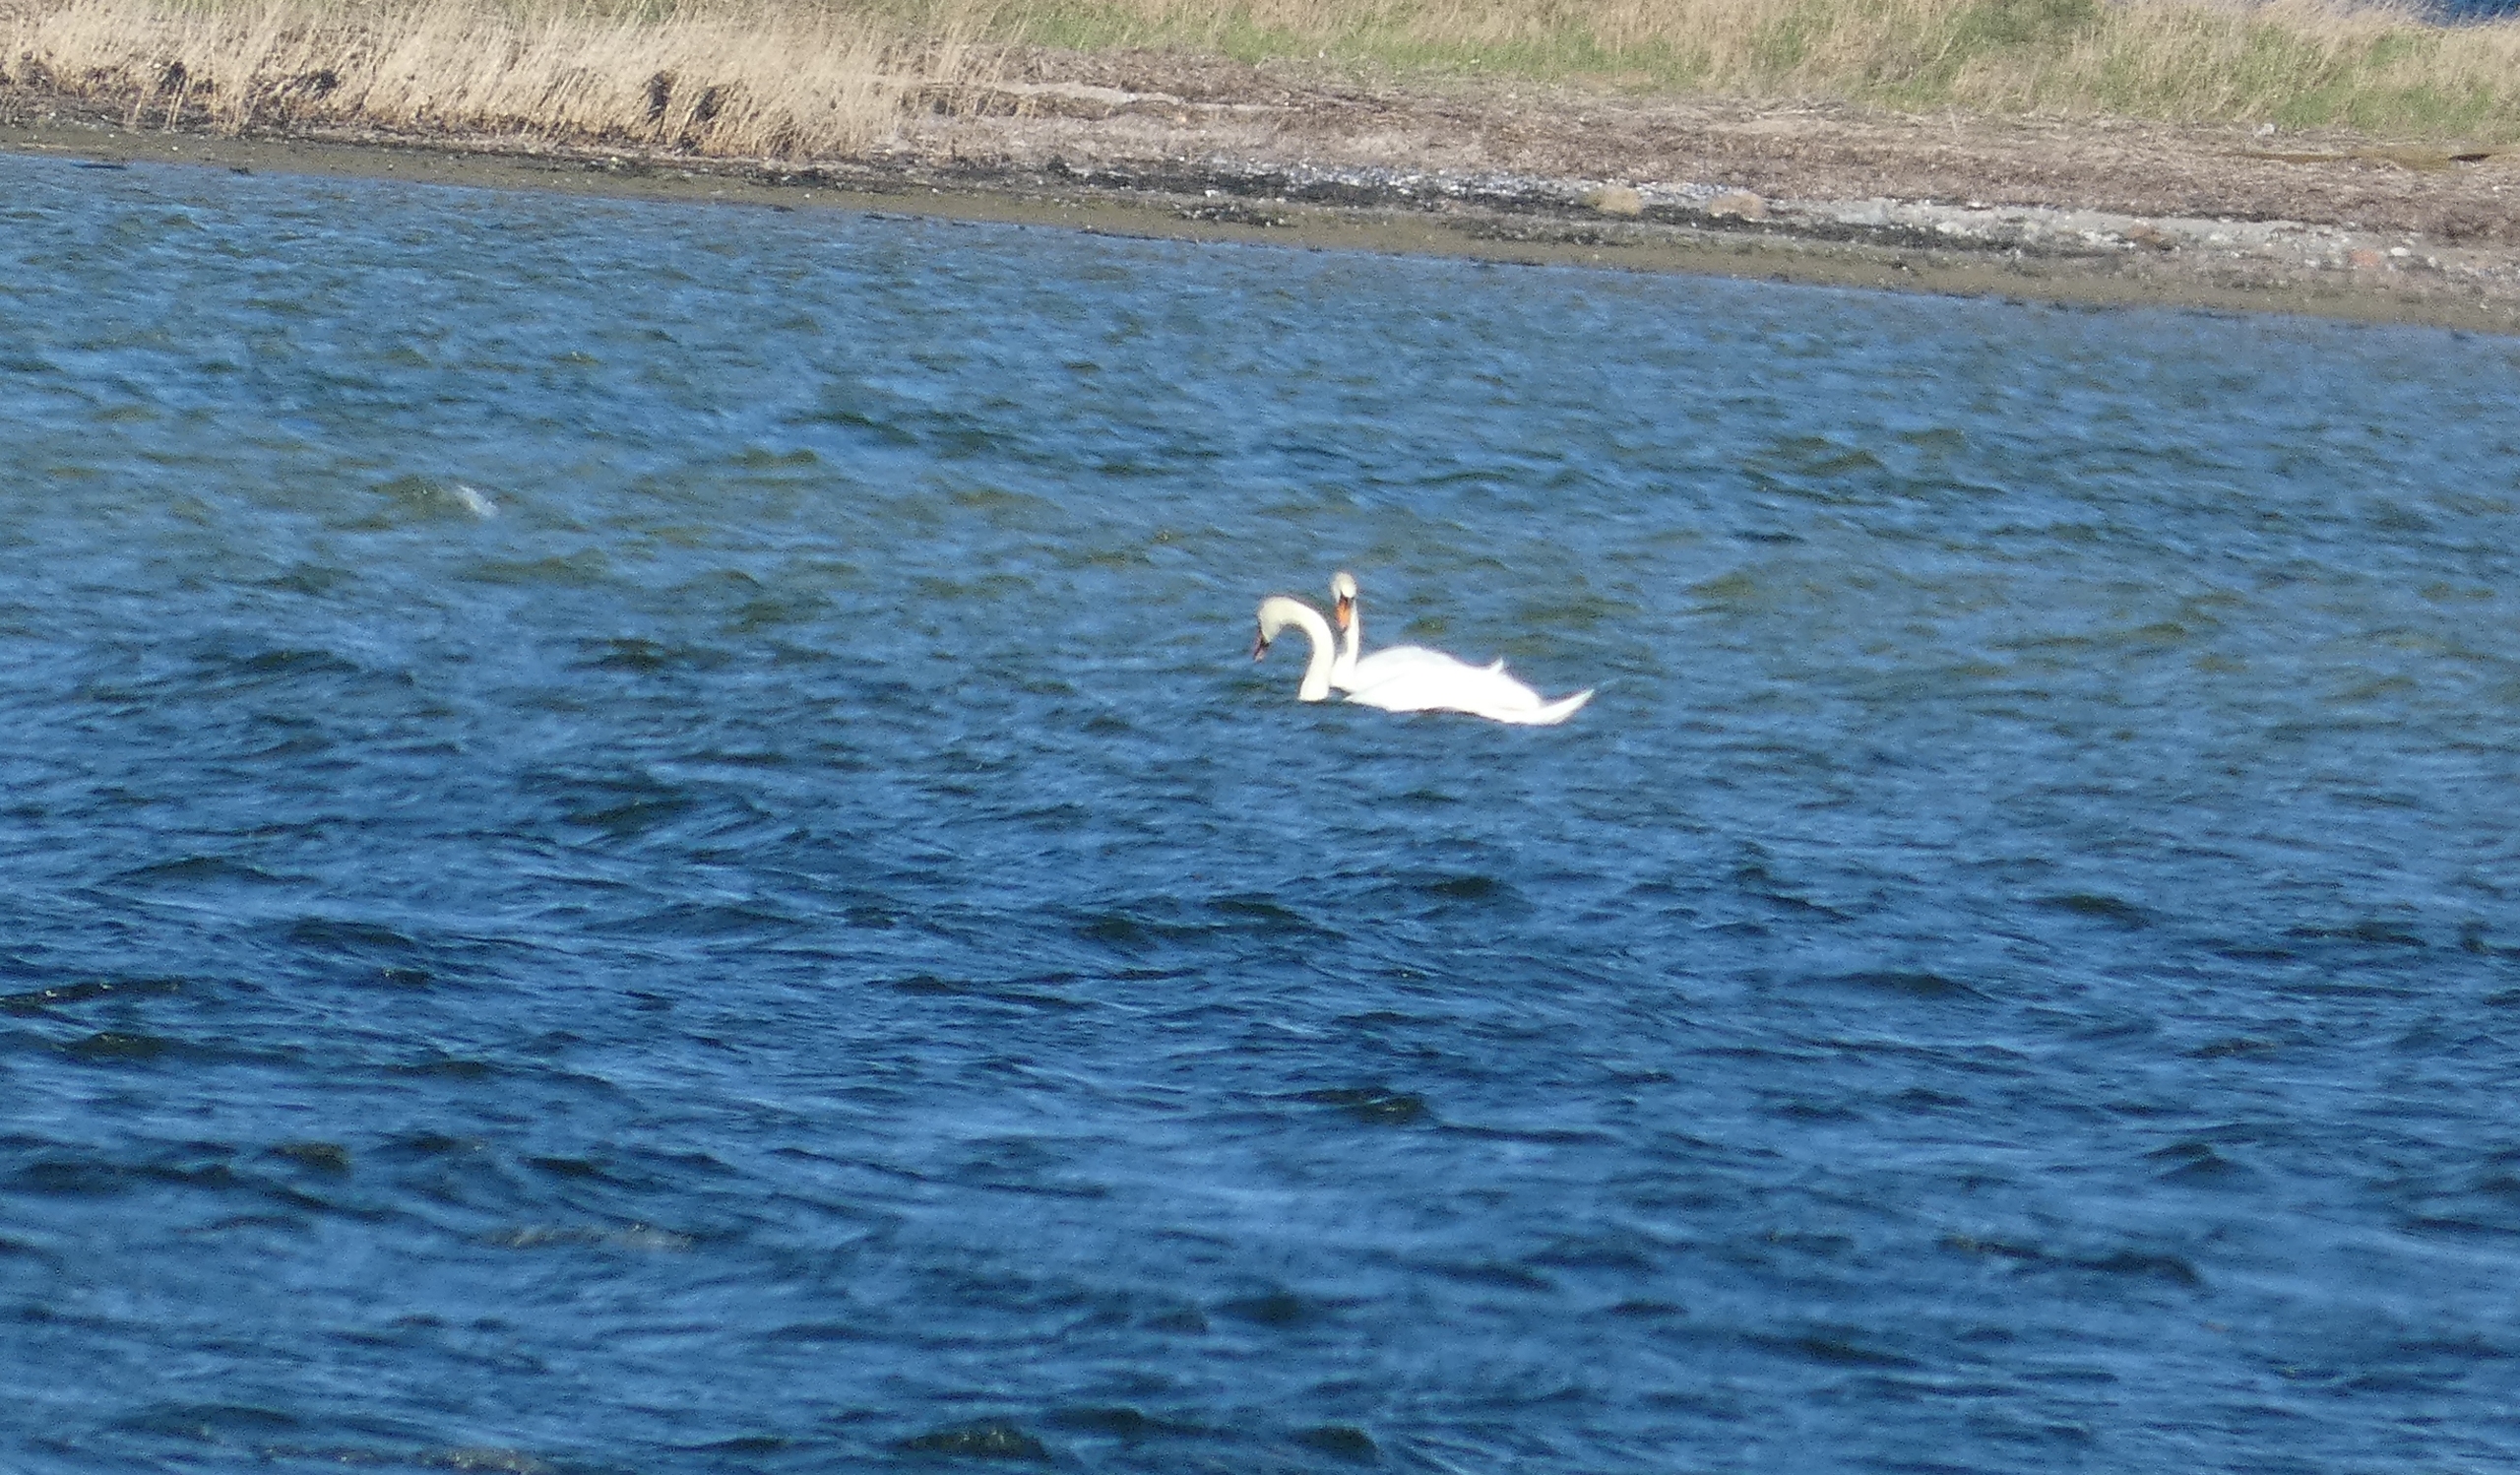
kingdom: Animalia
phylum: Chordata
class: Aves
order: Anseriformes
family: Anatidae
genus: Cygnus
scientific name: Cygnus olor
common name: Knopsvane
